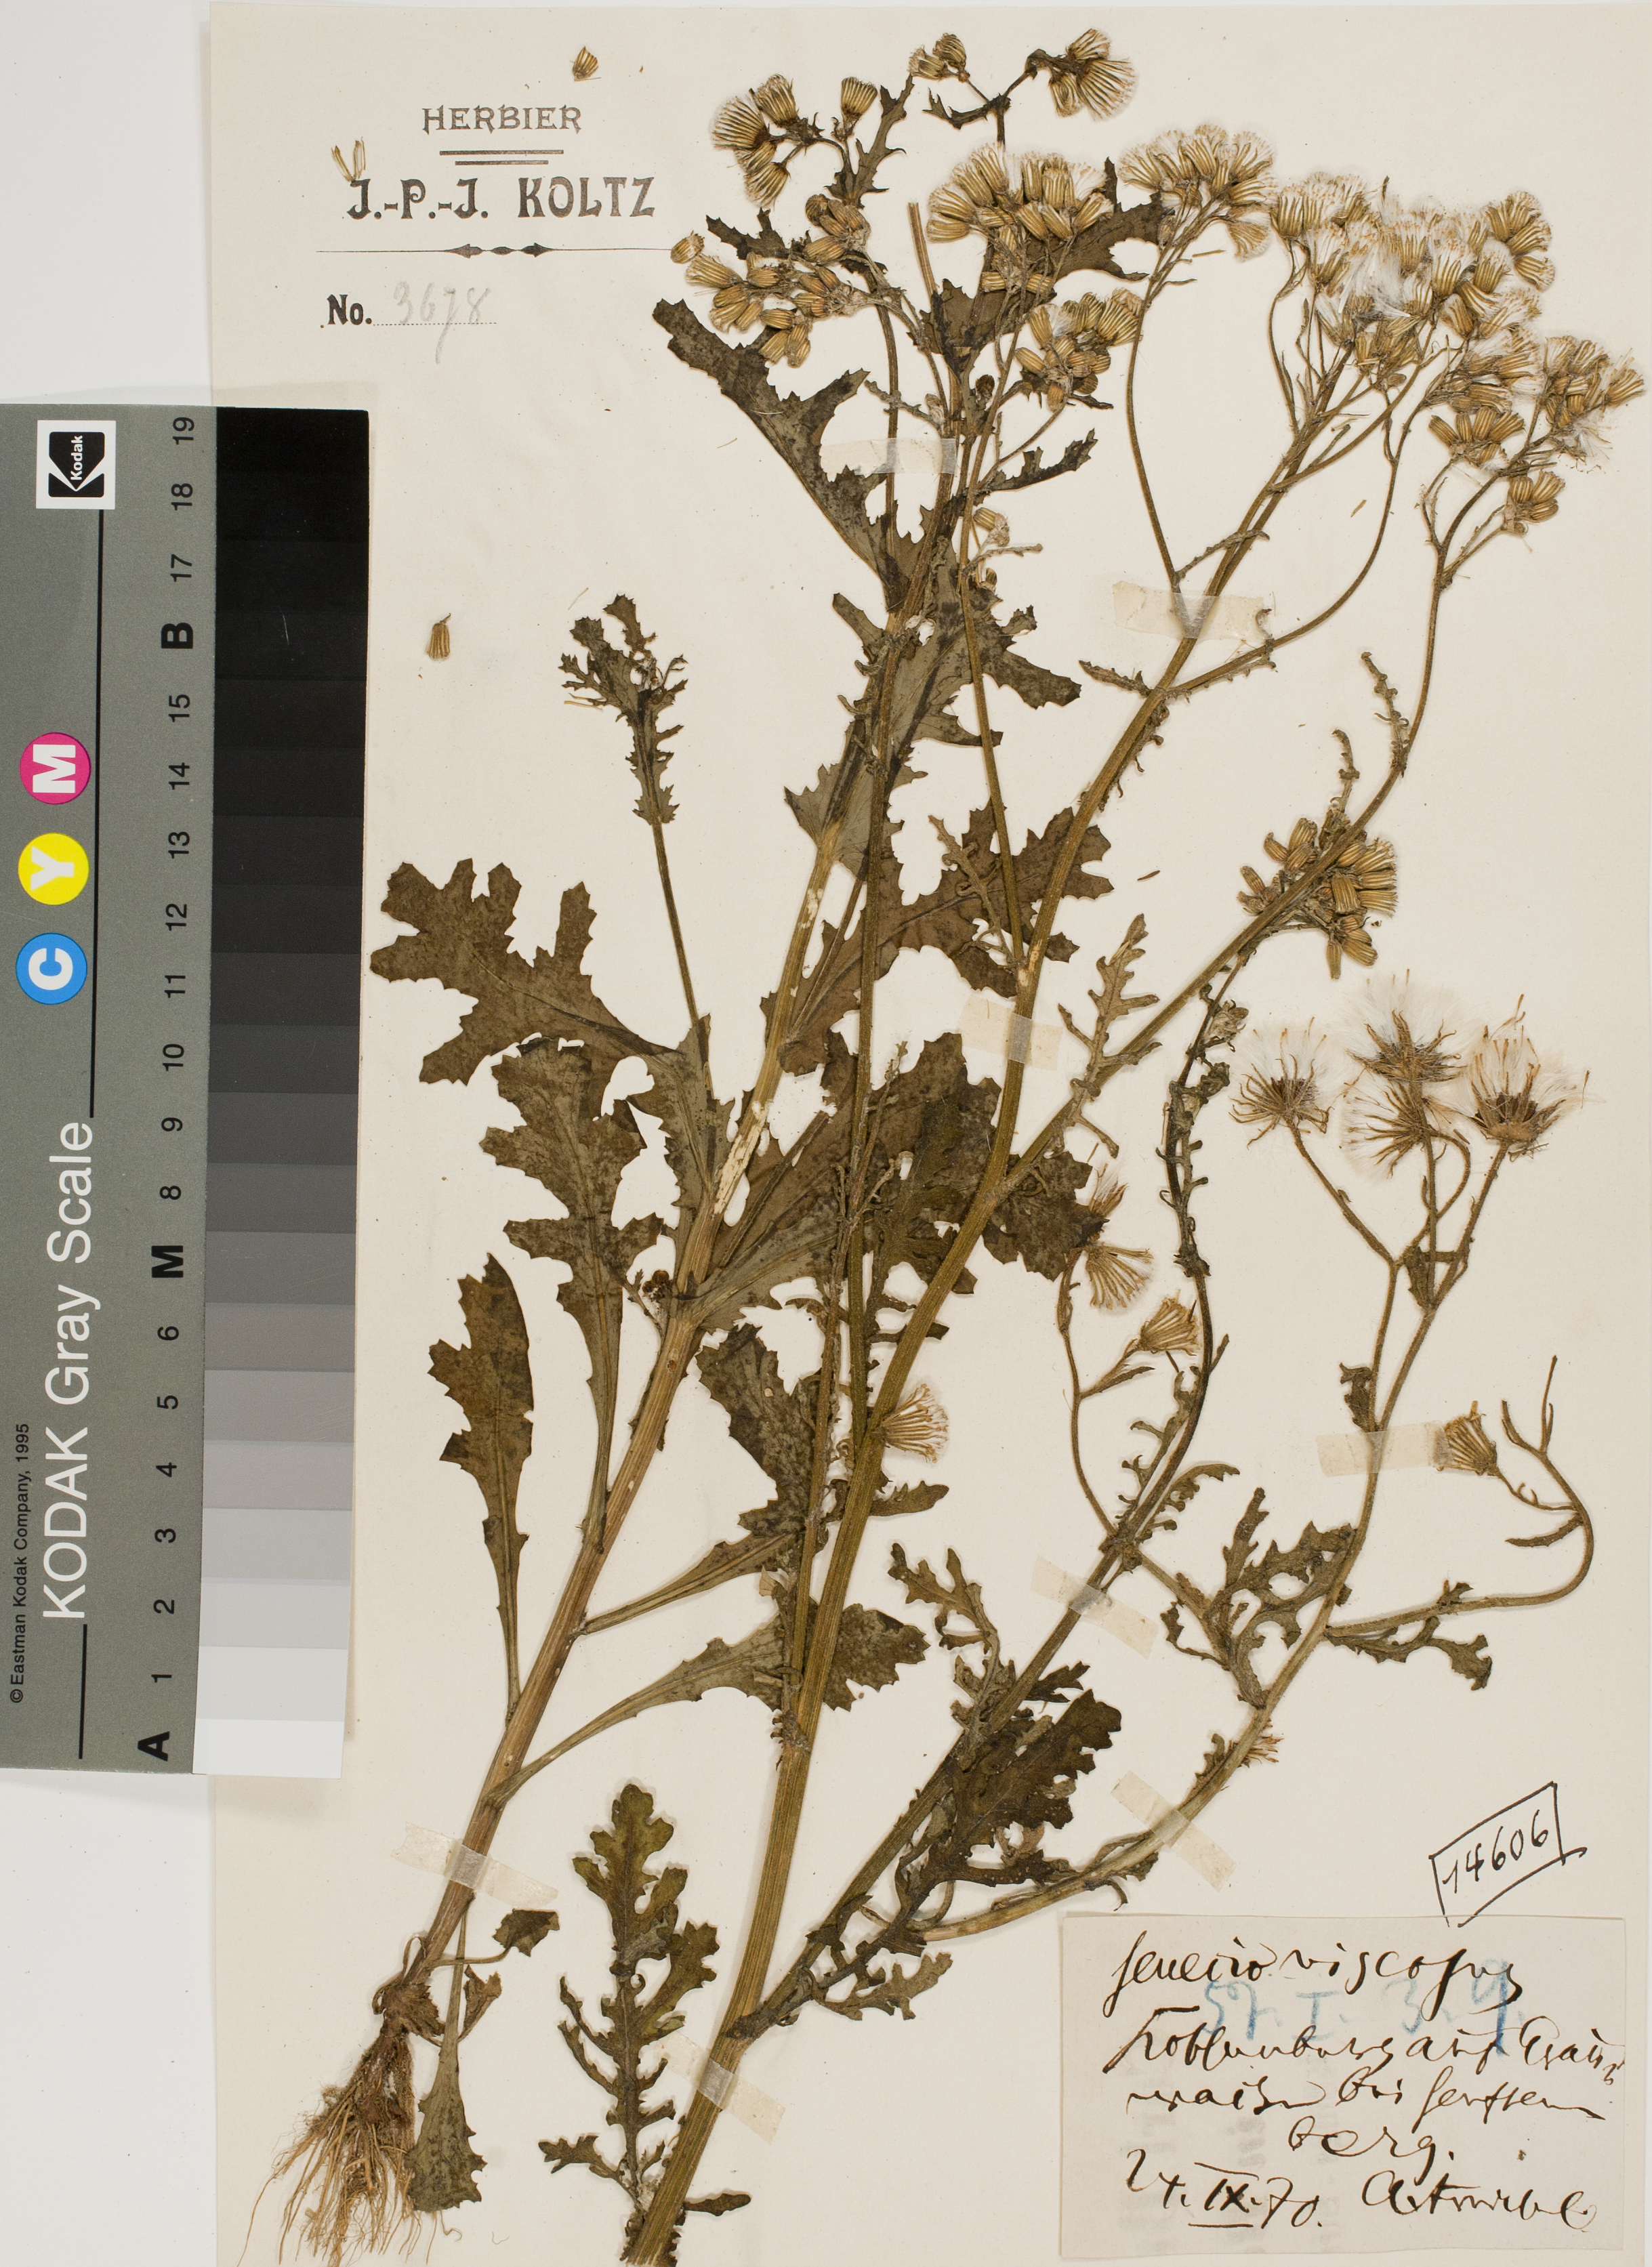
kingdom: Plantae
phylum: Tracheophyta
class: Magnoliopsida
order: Asterales
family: Asteraceae
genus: Senecio
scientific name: Senecio viscosus
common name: Sticky groundsel
